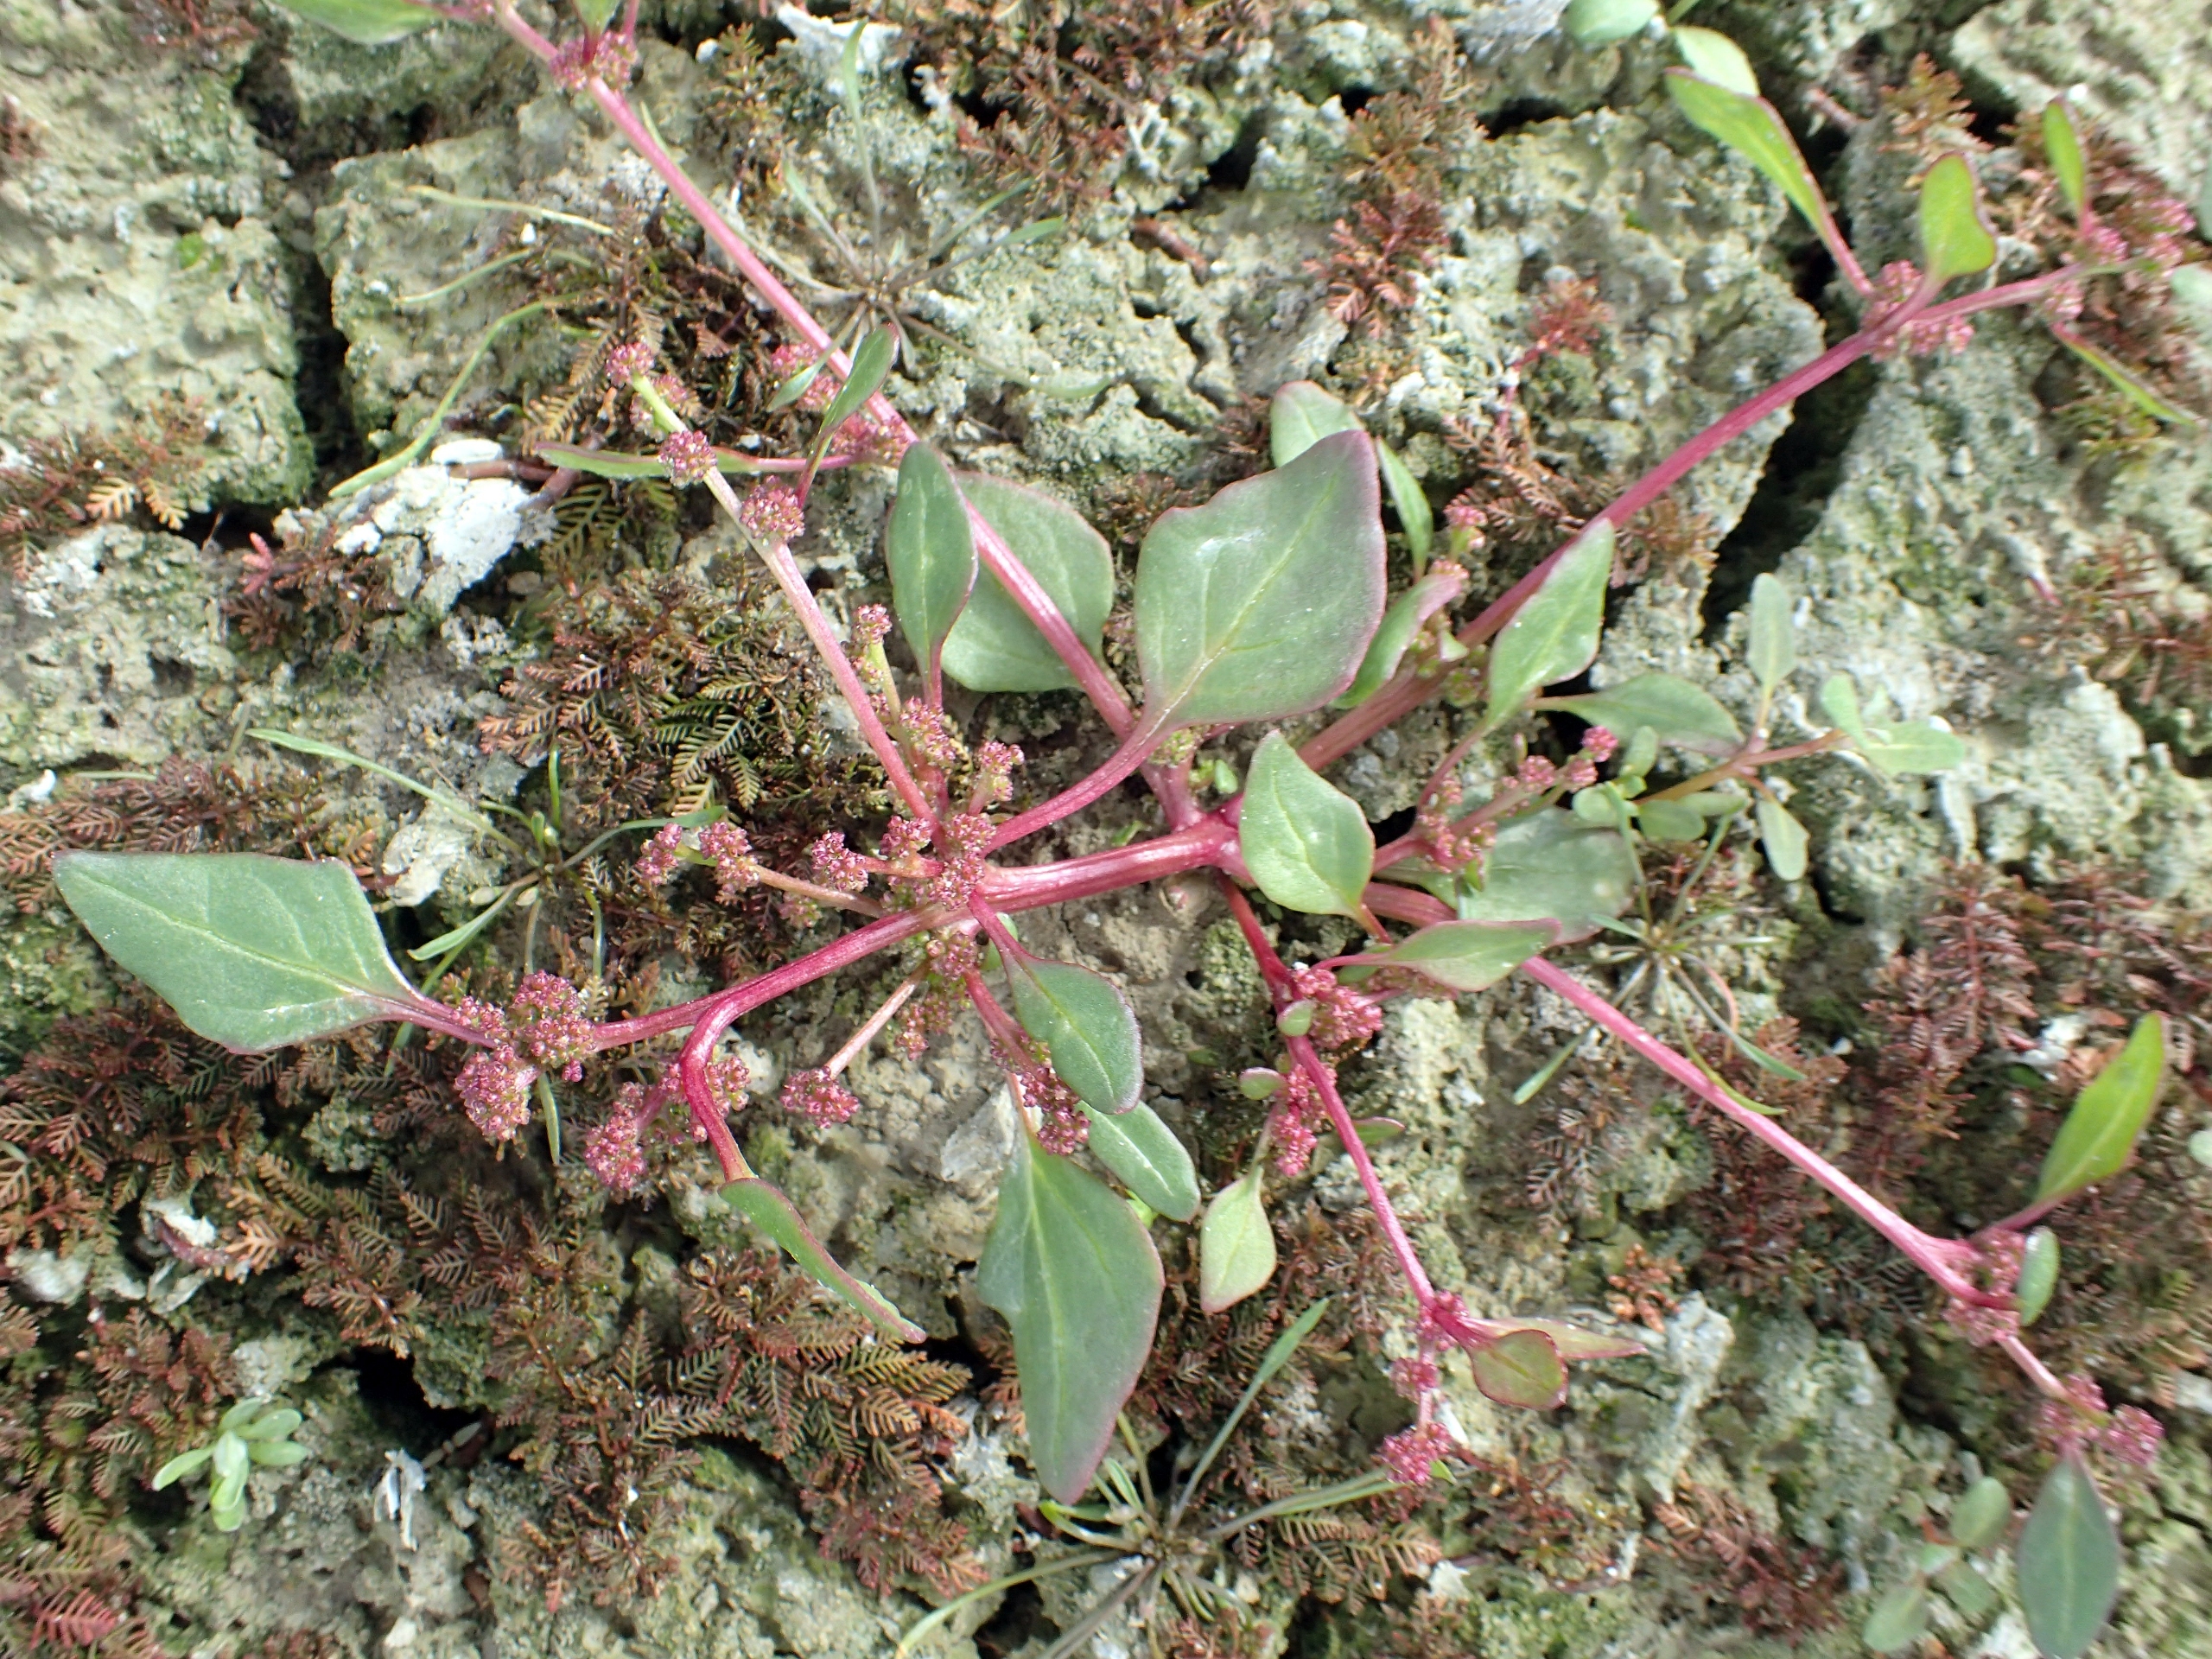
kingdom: Plantae
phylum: Tracheophyta
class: Magnoliopsida
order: Caryophyllales
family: Amaranthaceae
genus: Oxybasis
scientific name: Oxybasis chenopodioides
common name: Drue-gåsefod
